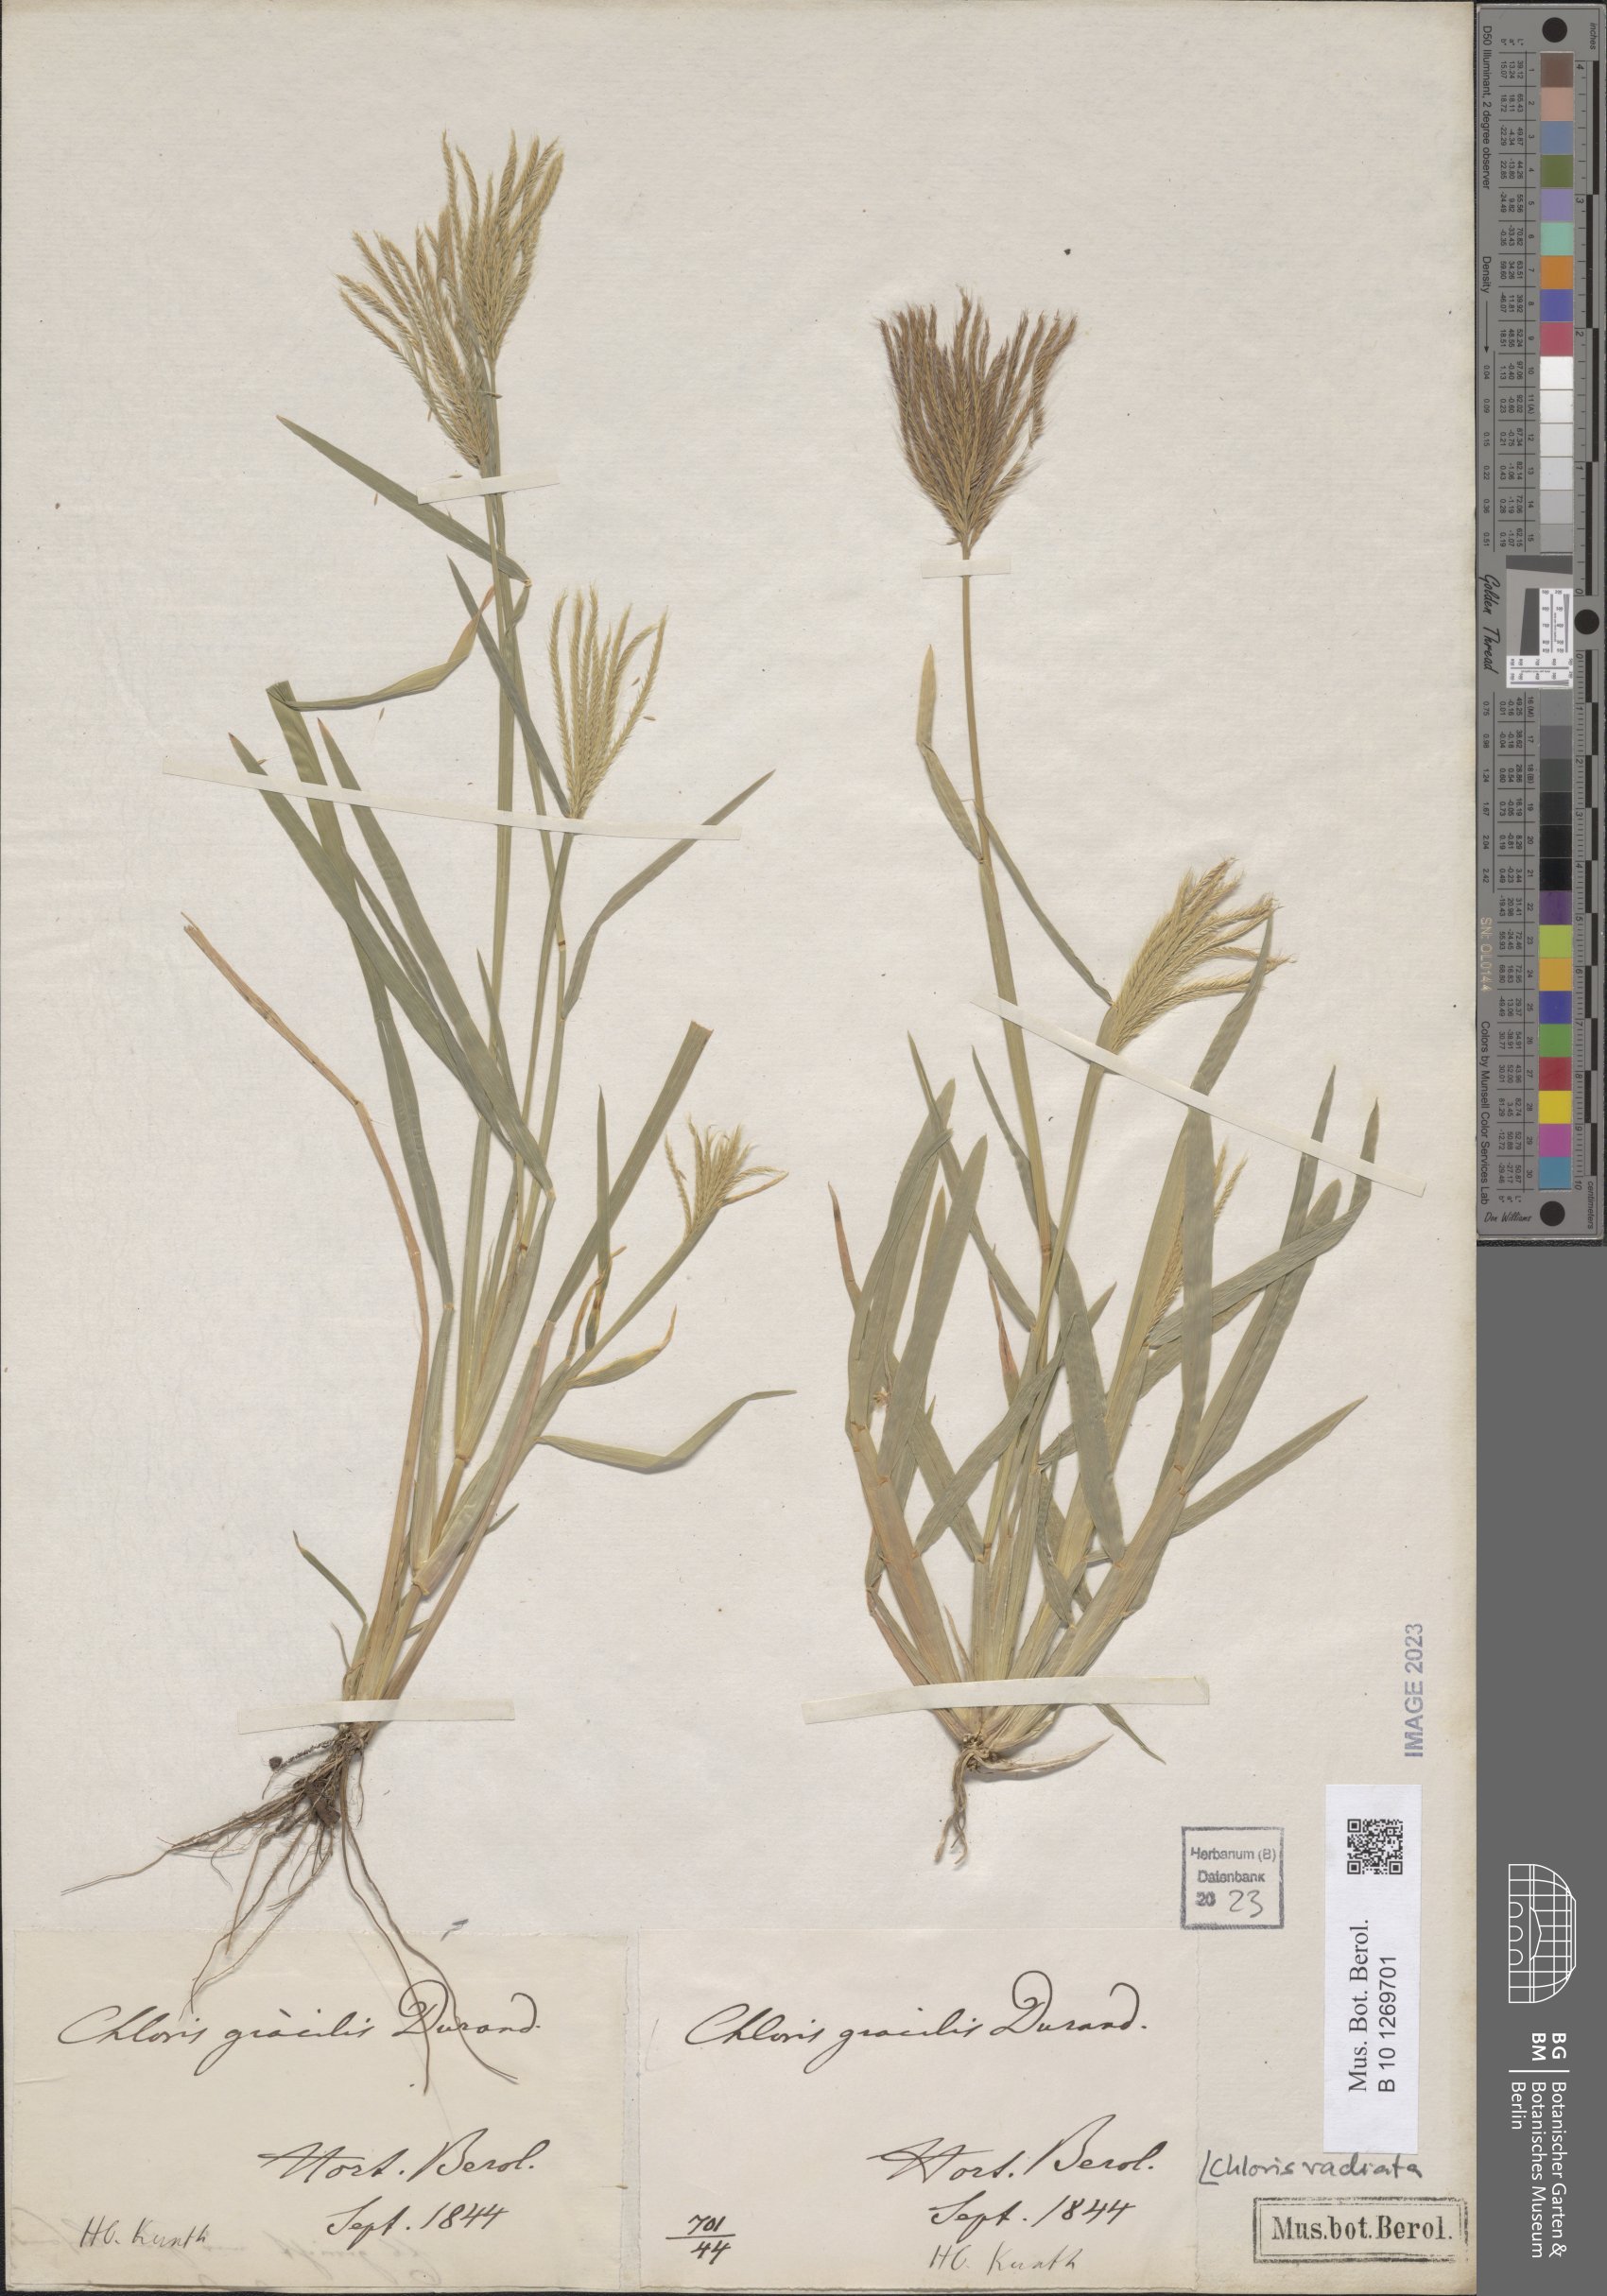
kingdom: Plantae
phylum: Tracheophyta
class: Liliopsida
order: Poales
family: Poaceae
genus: Chloris
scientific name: Chloris radiata
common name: Radiate fingergrass
